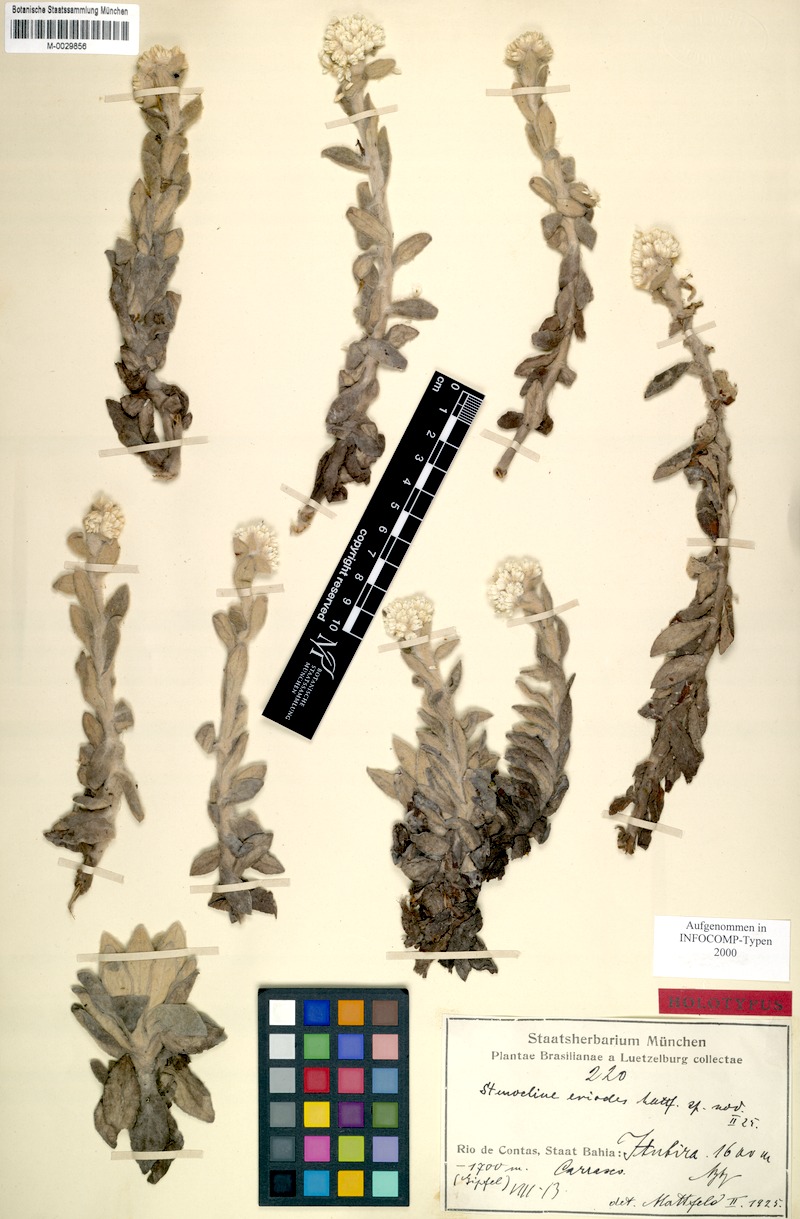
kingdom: Plantae
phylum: Tracheophyta
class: Magnoliopsida
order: Asterales
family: Asteraceae
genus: Achyrocline
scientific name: Achyrocline eriodes
